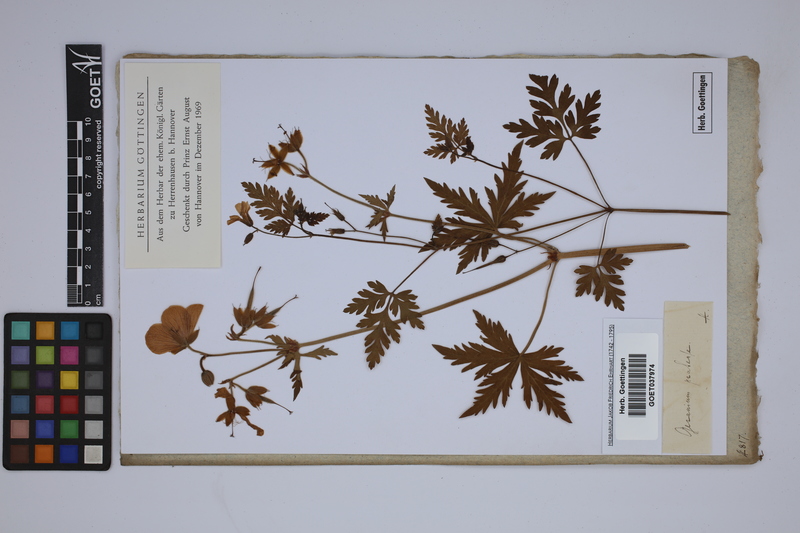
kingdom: Plantae
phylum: Tracheophyta
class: Magnoliopsida
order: Geraniales
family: Geraniaceae
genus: Geranium
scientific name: Geranium pratense
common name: Meadow crane's-bill
